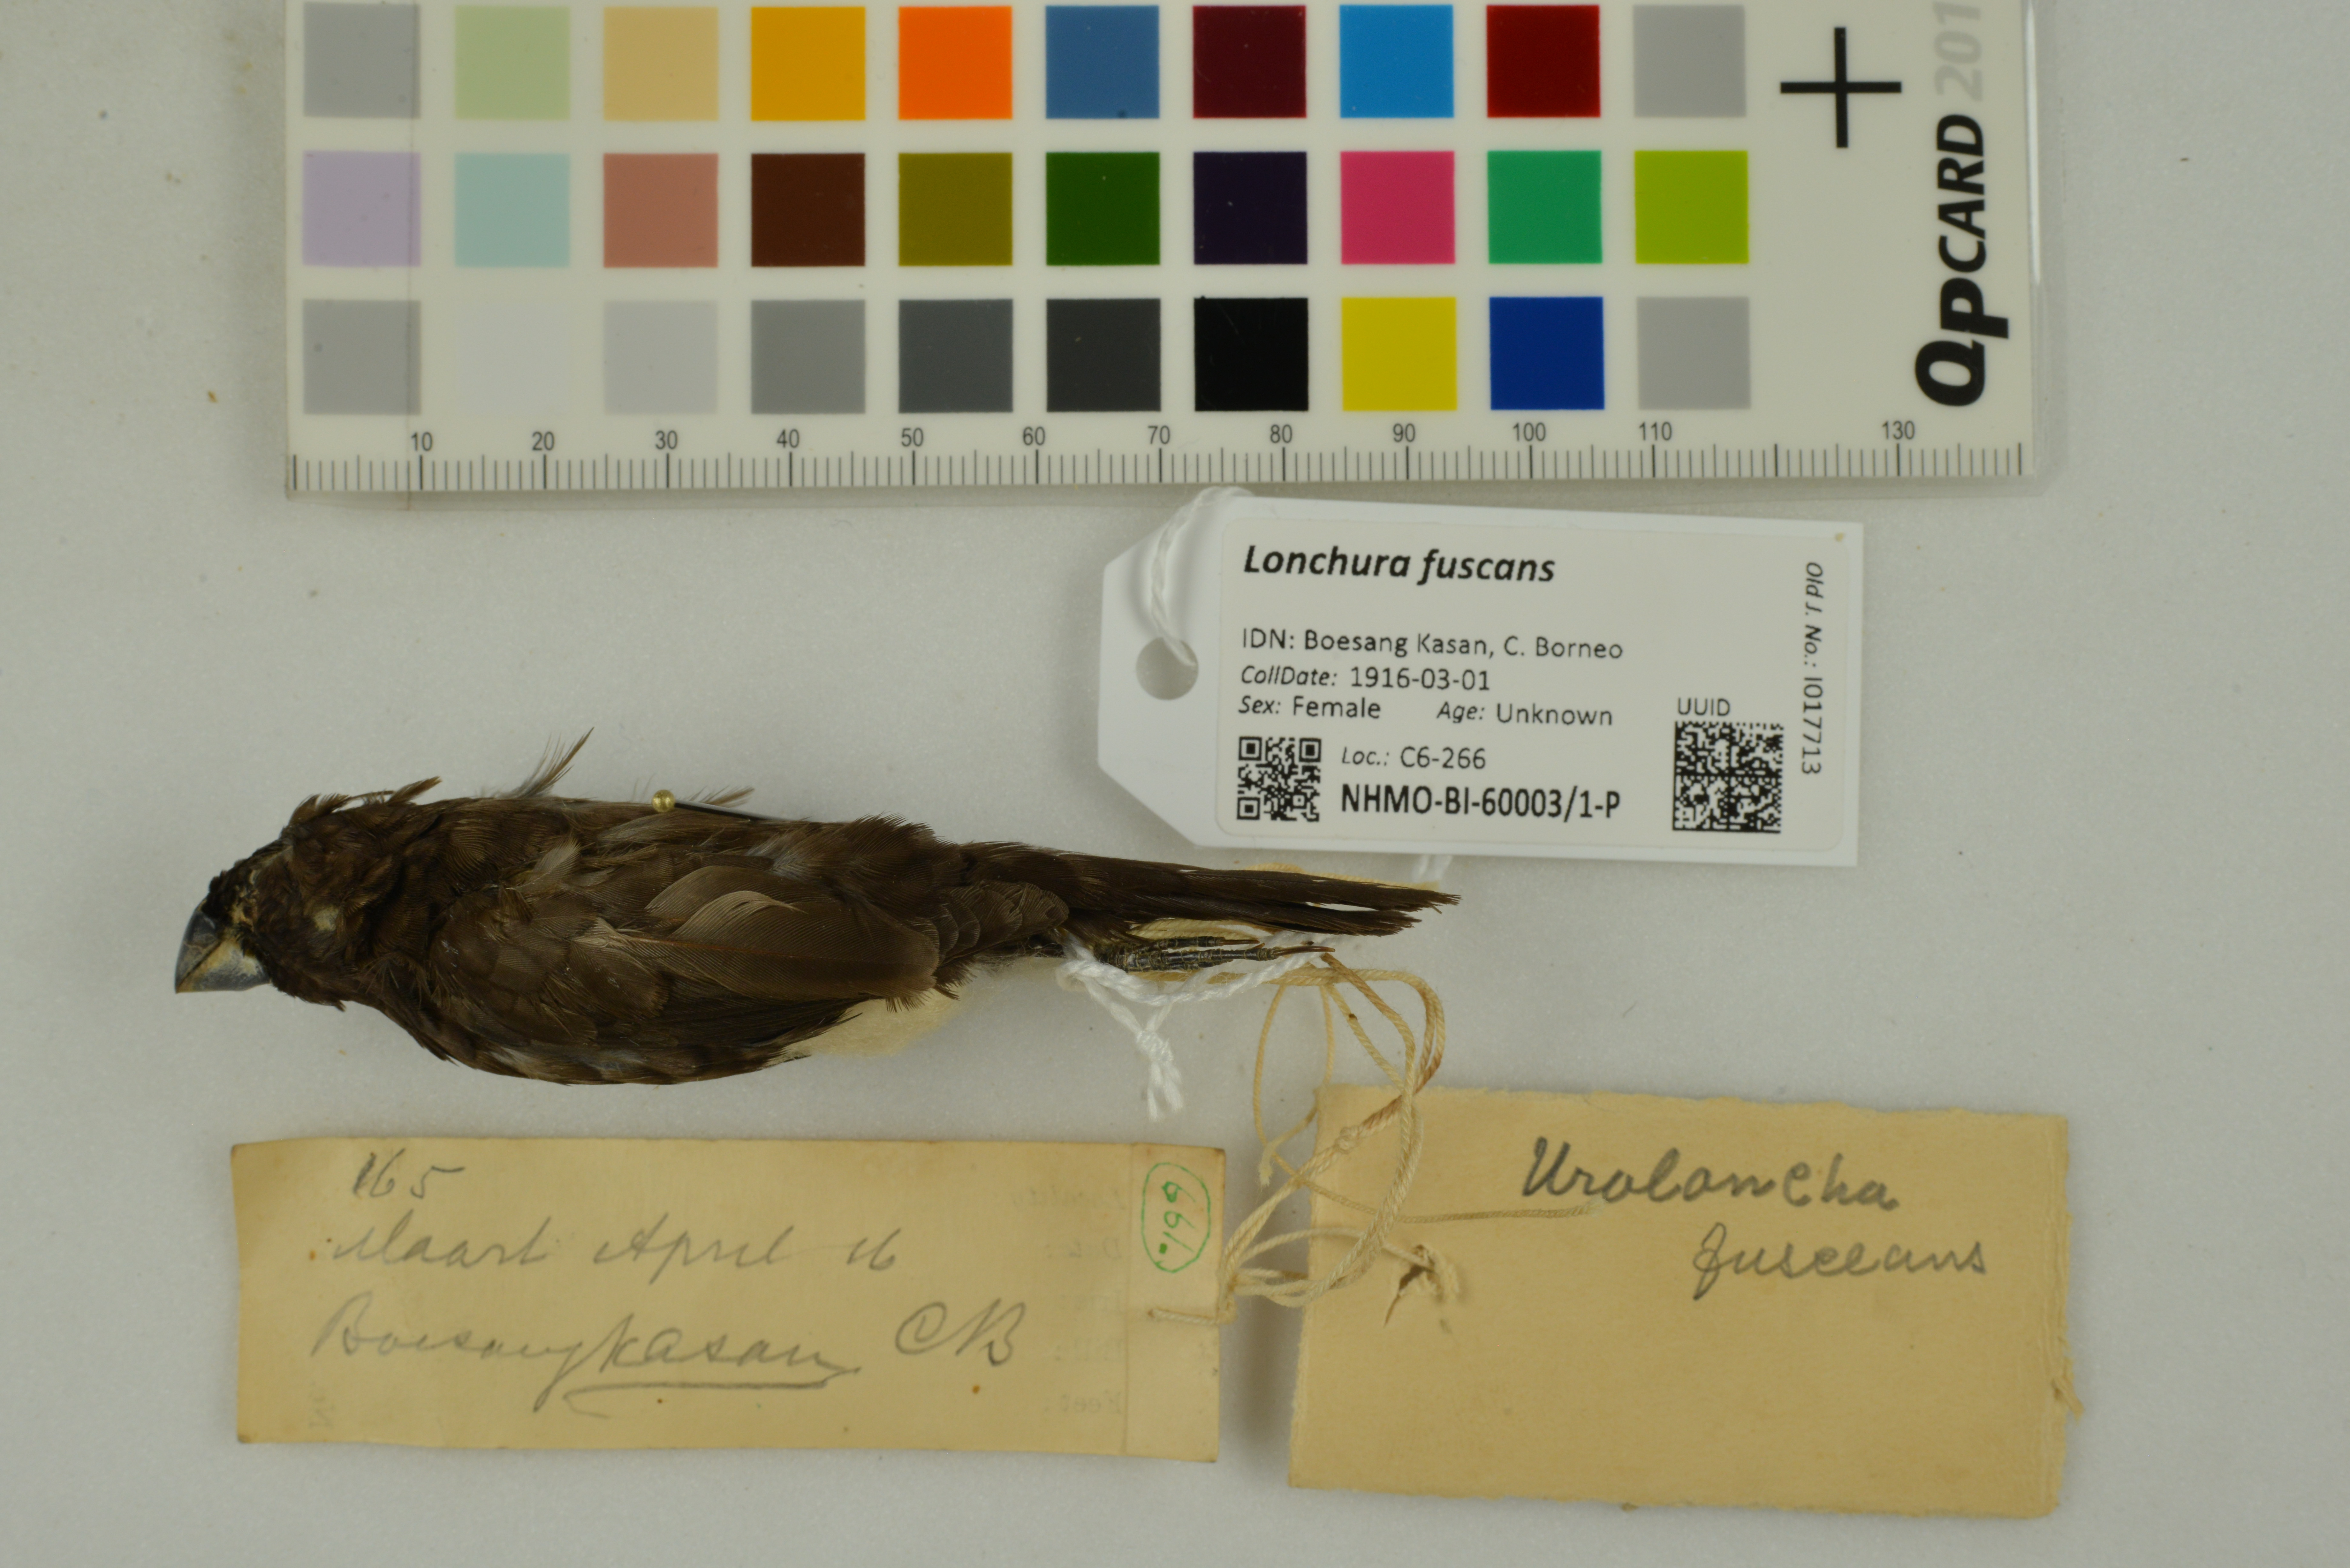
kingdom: Animalia
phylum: Chordata
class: Aves
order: Passeriformes
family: Estrildidae
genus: Lonchura
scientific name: Lonchura fuscans
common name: Dusky munia
